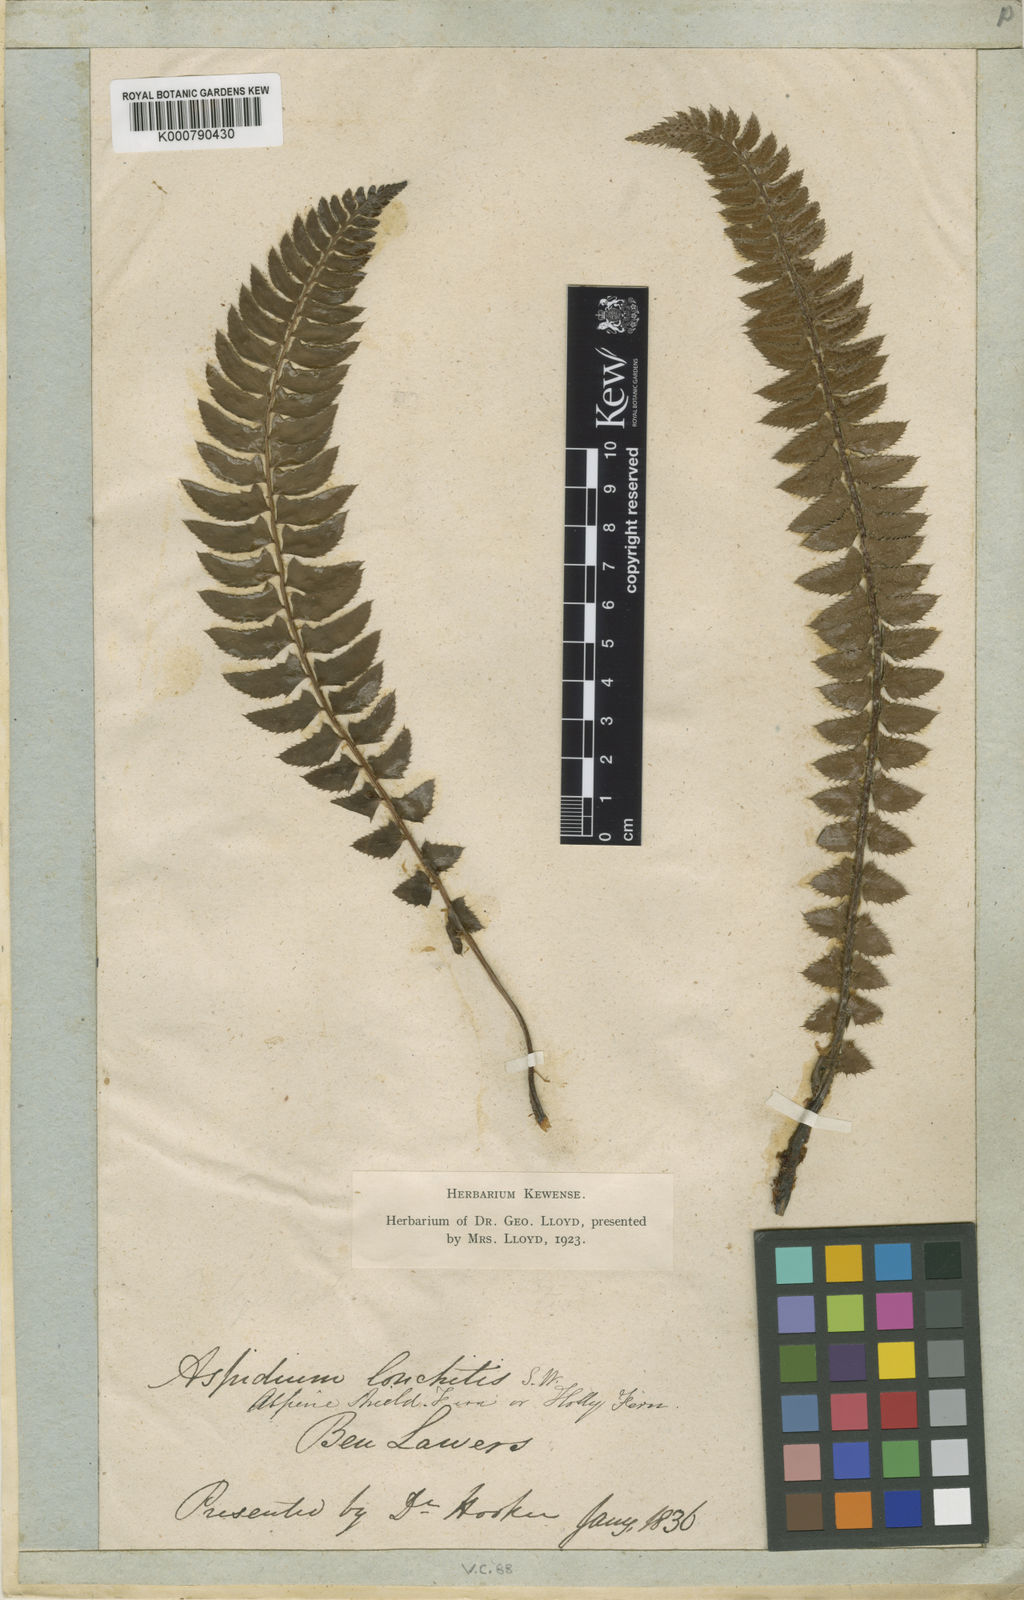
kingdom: Plantae
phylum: Tracheophyta
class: Polypodiopsida
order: Polypodiales
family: Dryopteridaceae
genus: Polystichum
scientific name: Polystichum
